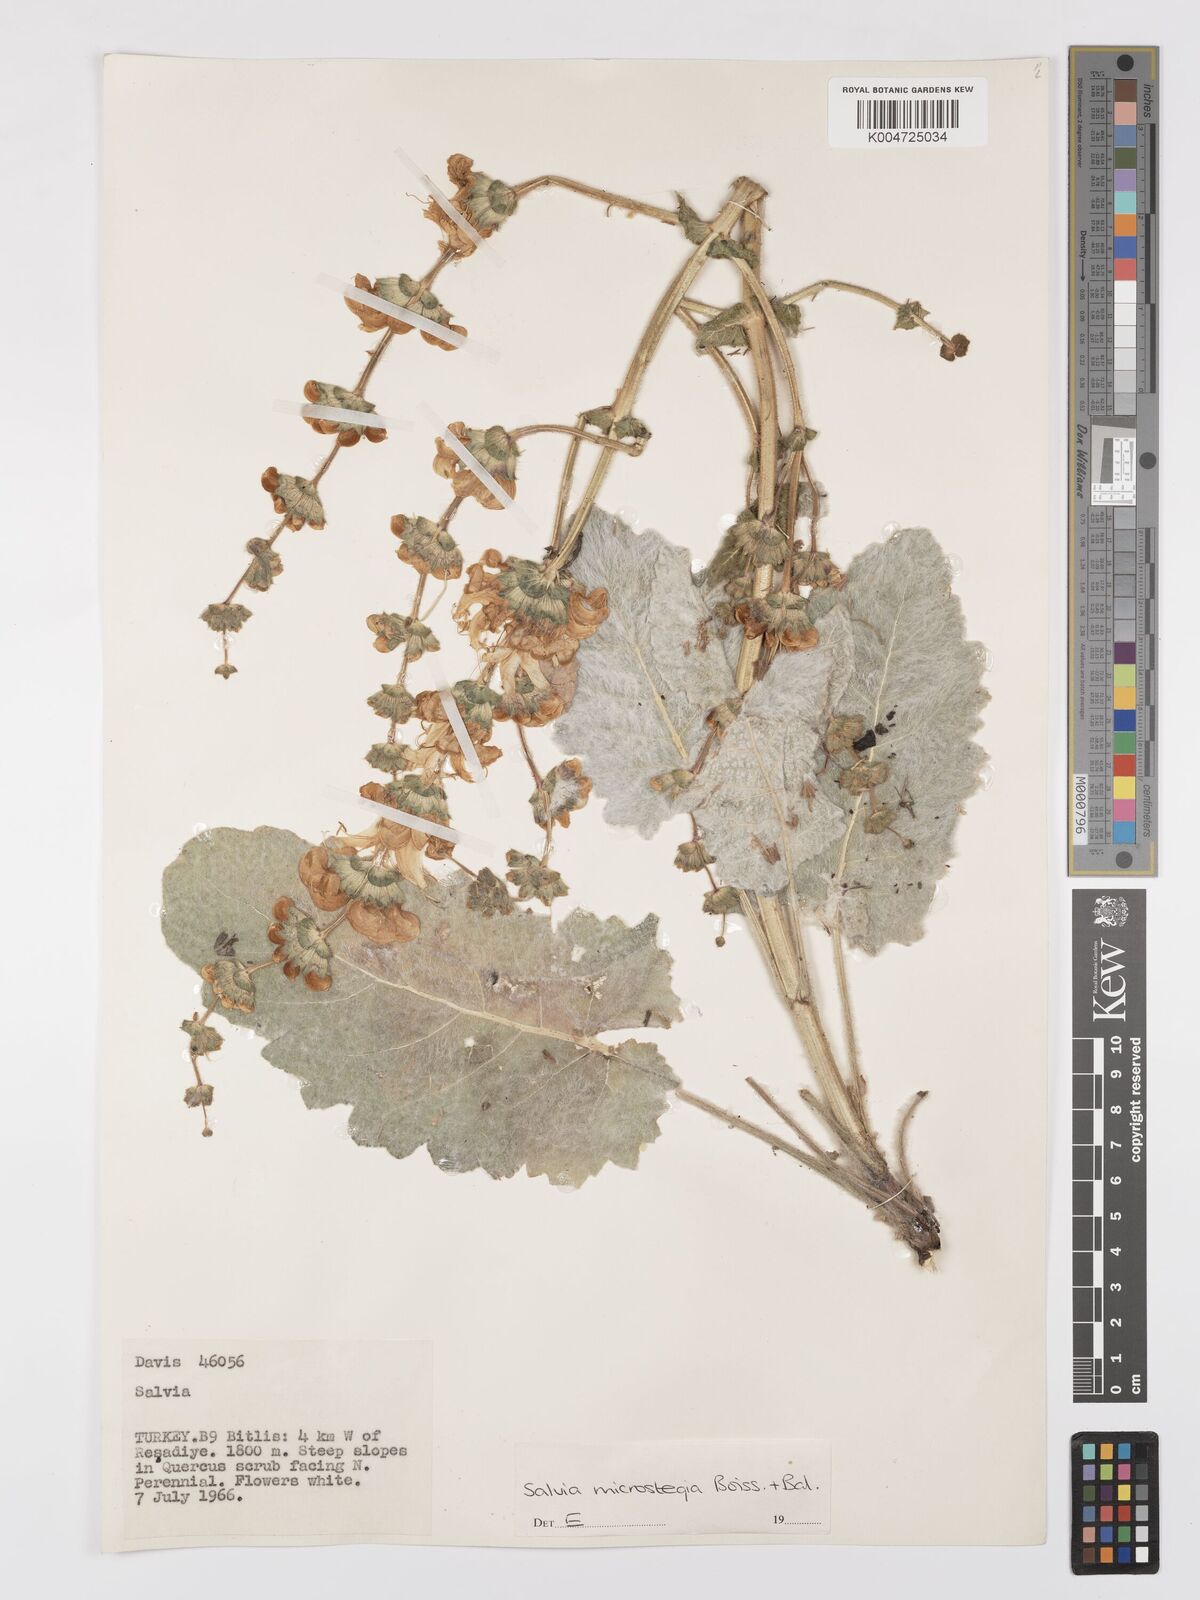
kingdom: Plantae
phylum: Tracheophyta
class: Magnoliopsida
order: Lamiales
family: Lamiaceae
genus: Salvia
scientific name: Salvia microstegia
